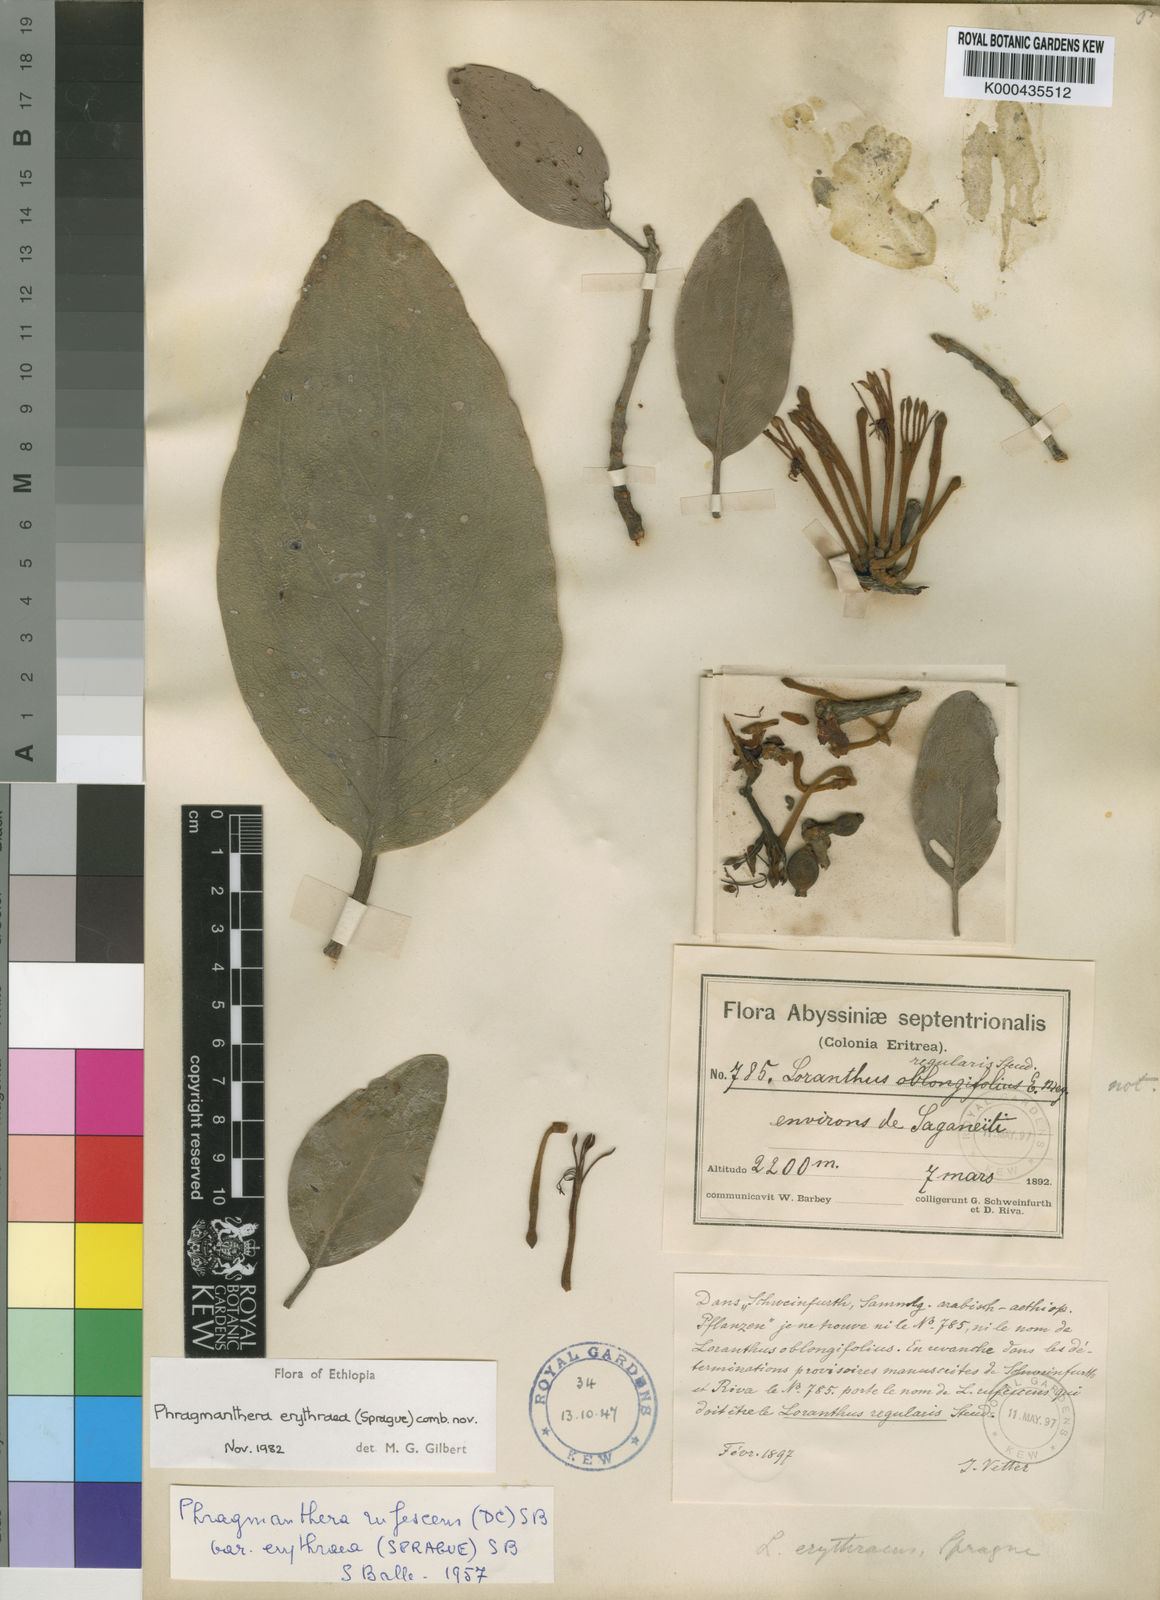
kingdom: Plantae
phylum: Tracheophyta
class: Magnoliopsida
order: Santalales
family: Loranthaceae
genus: Phragmanthera
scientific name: Phragmanthera erythraea
